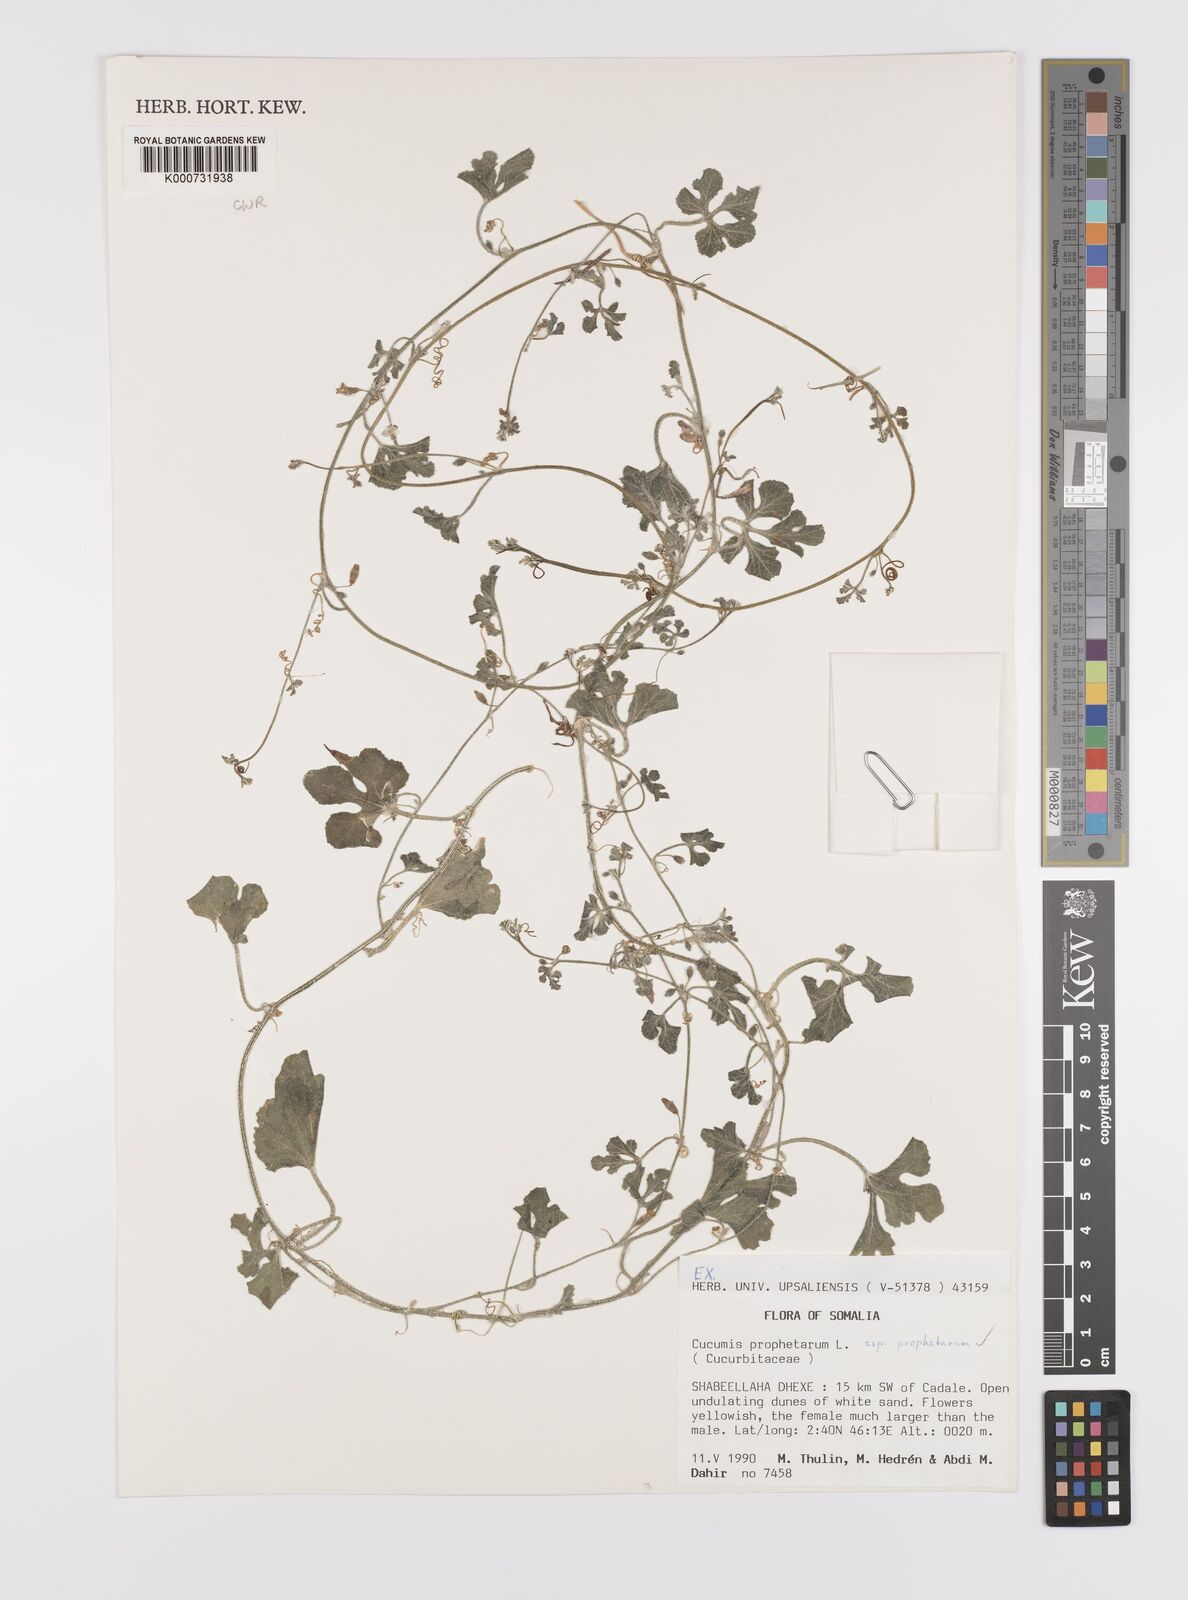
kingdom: Plantae
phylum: Tracheophyta
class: Magnoliopsida
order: Cucurbitales
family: Cucurbitaceae
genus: Cucumis
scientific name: Cucumis prophetarum
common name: Wild cucumber
